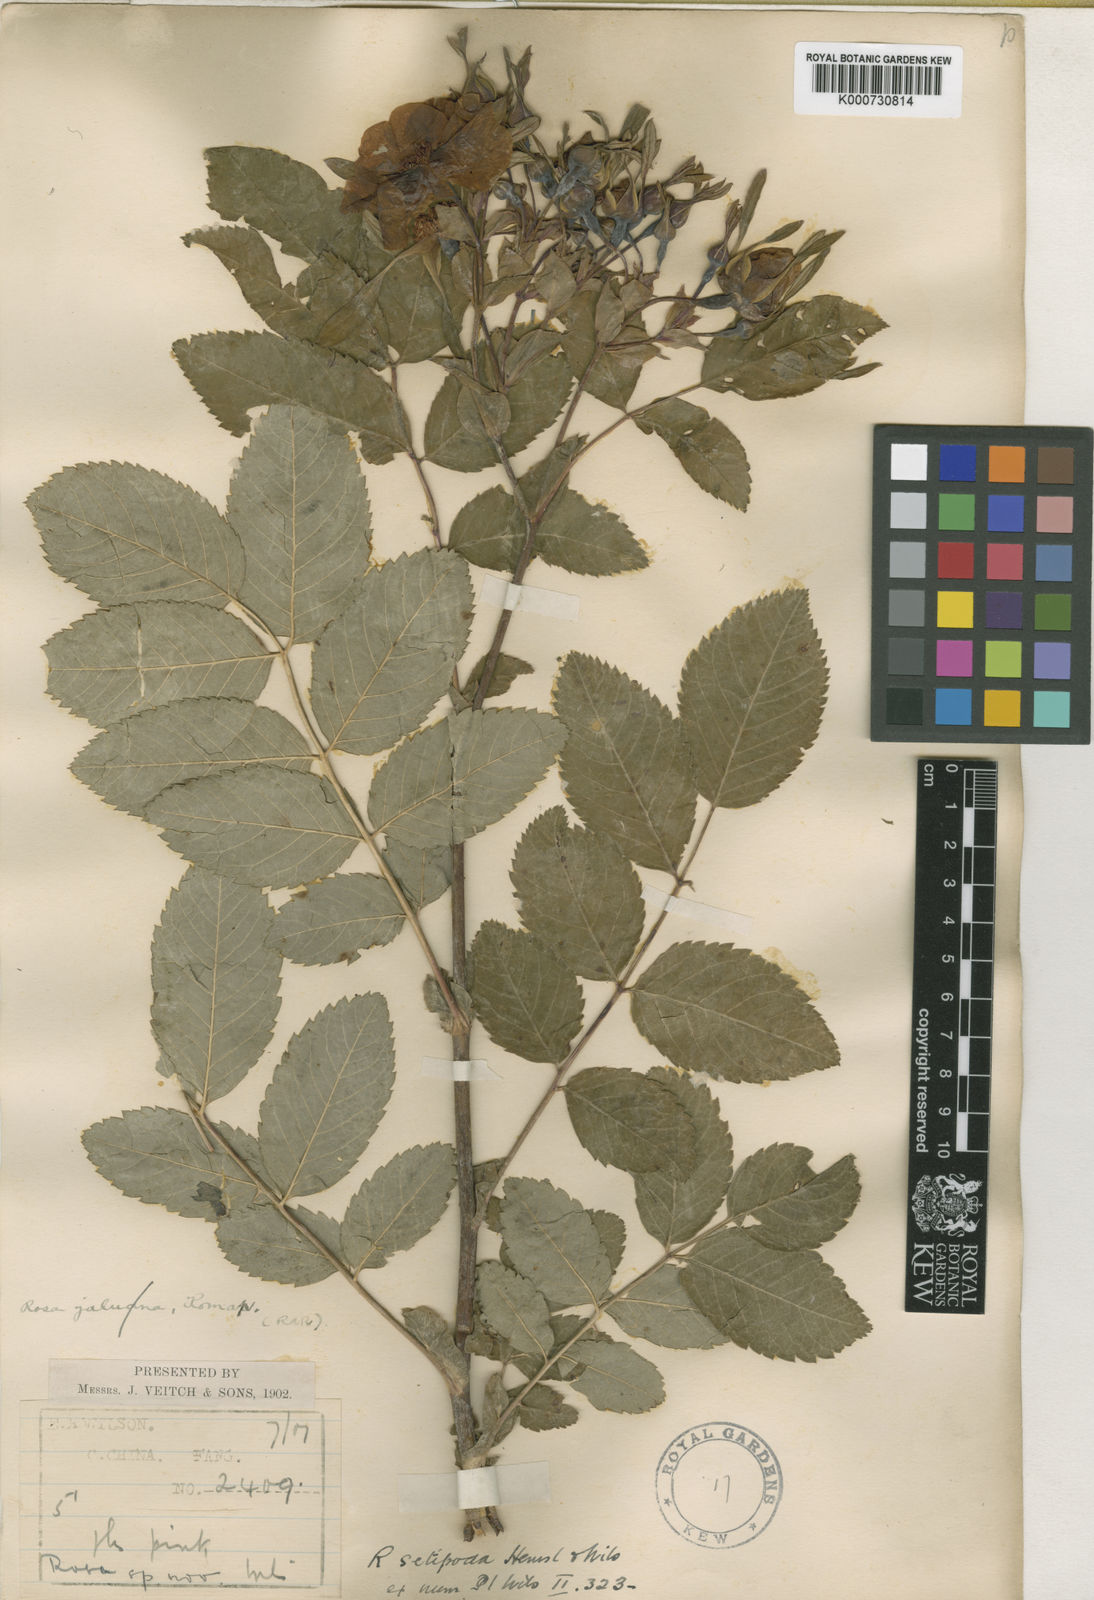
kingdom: Plantae
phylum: Tracheophyta
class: Magnoliopsida
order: Rosales
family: Rosaceae
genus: Rosa
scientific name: Rosa macrophylla
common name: Big-hip rose
